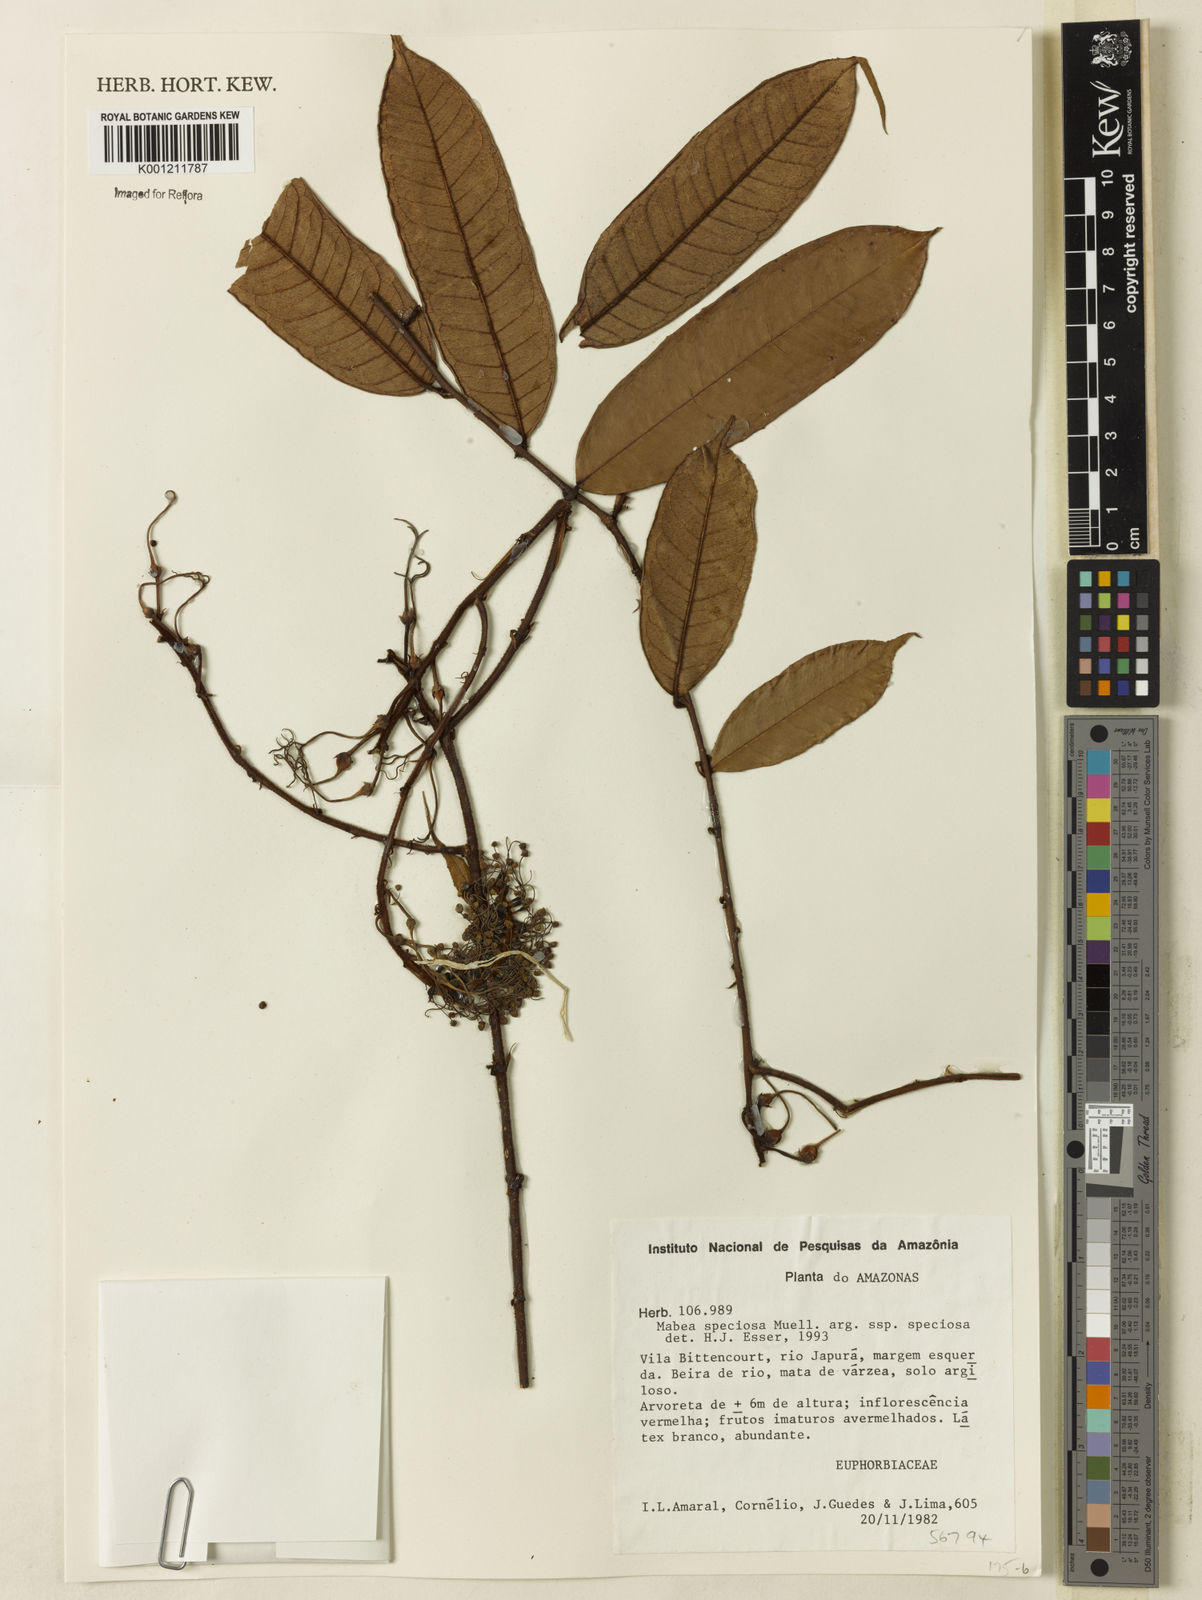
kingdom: Plantae
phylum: Tracheophyta
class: Magnoliopsida
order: Malpighiales
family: Euphorbiaceae
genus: Mabea
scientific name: Mabea
